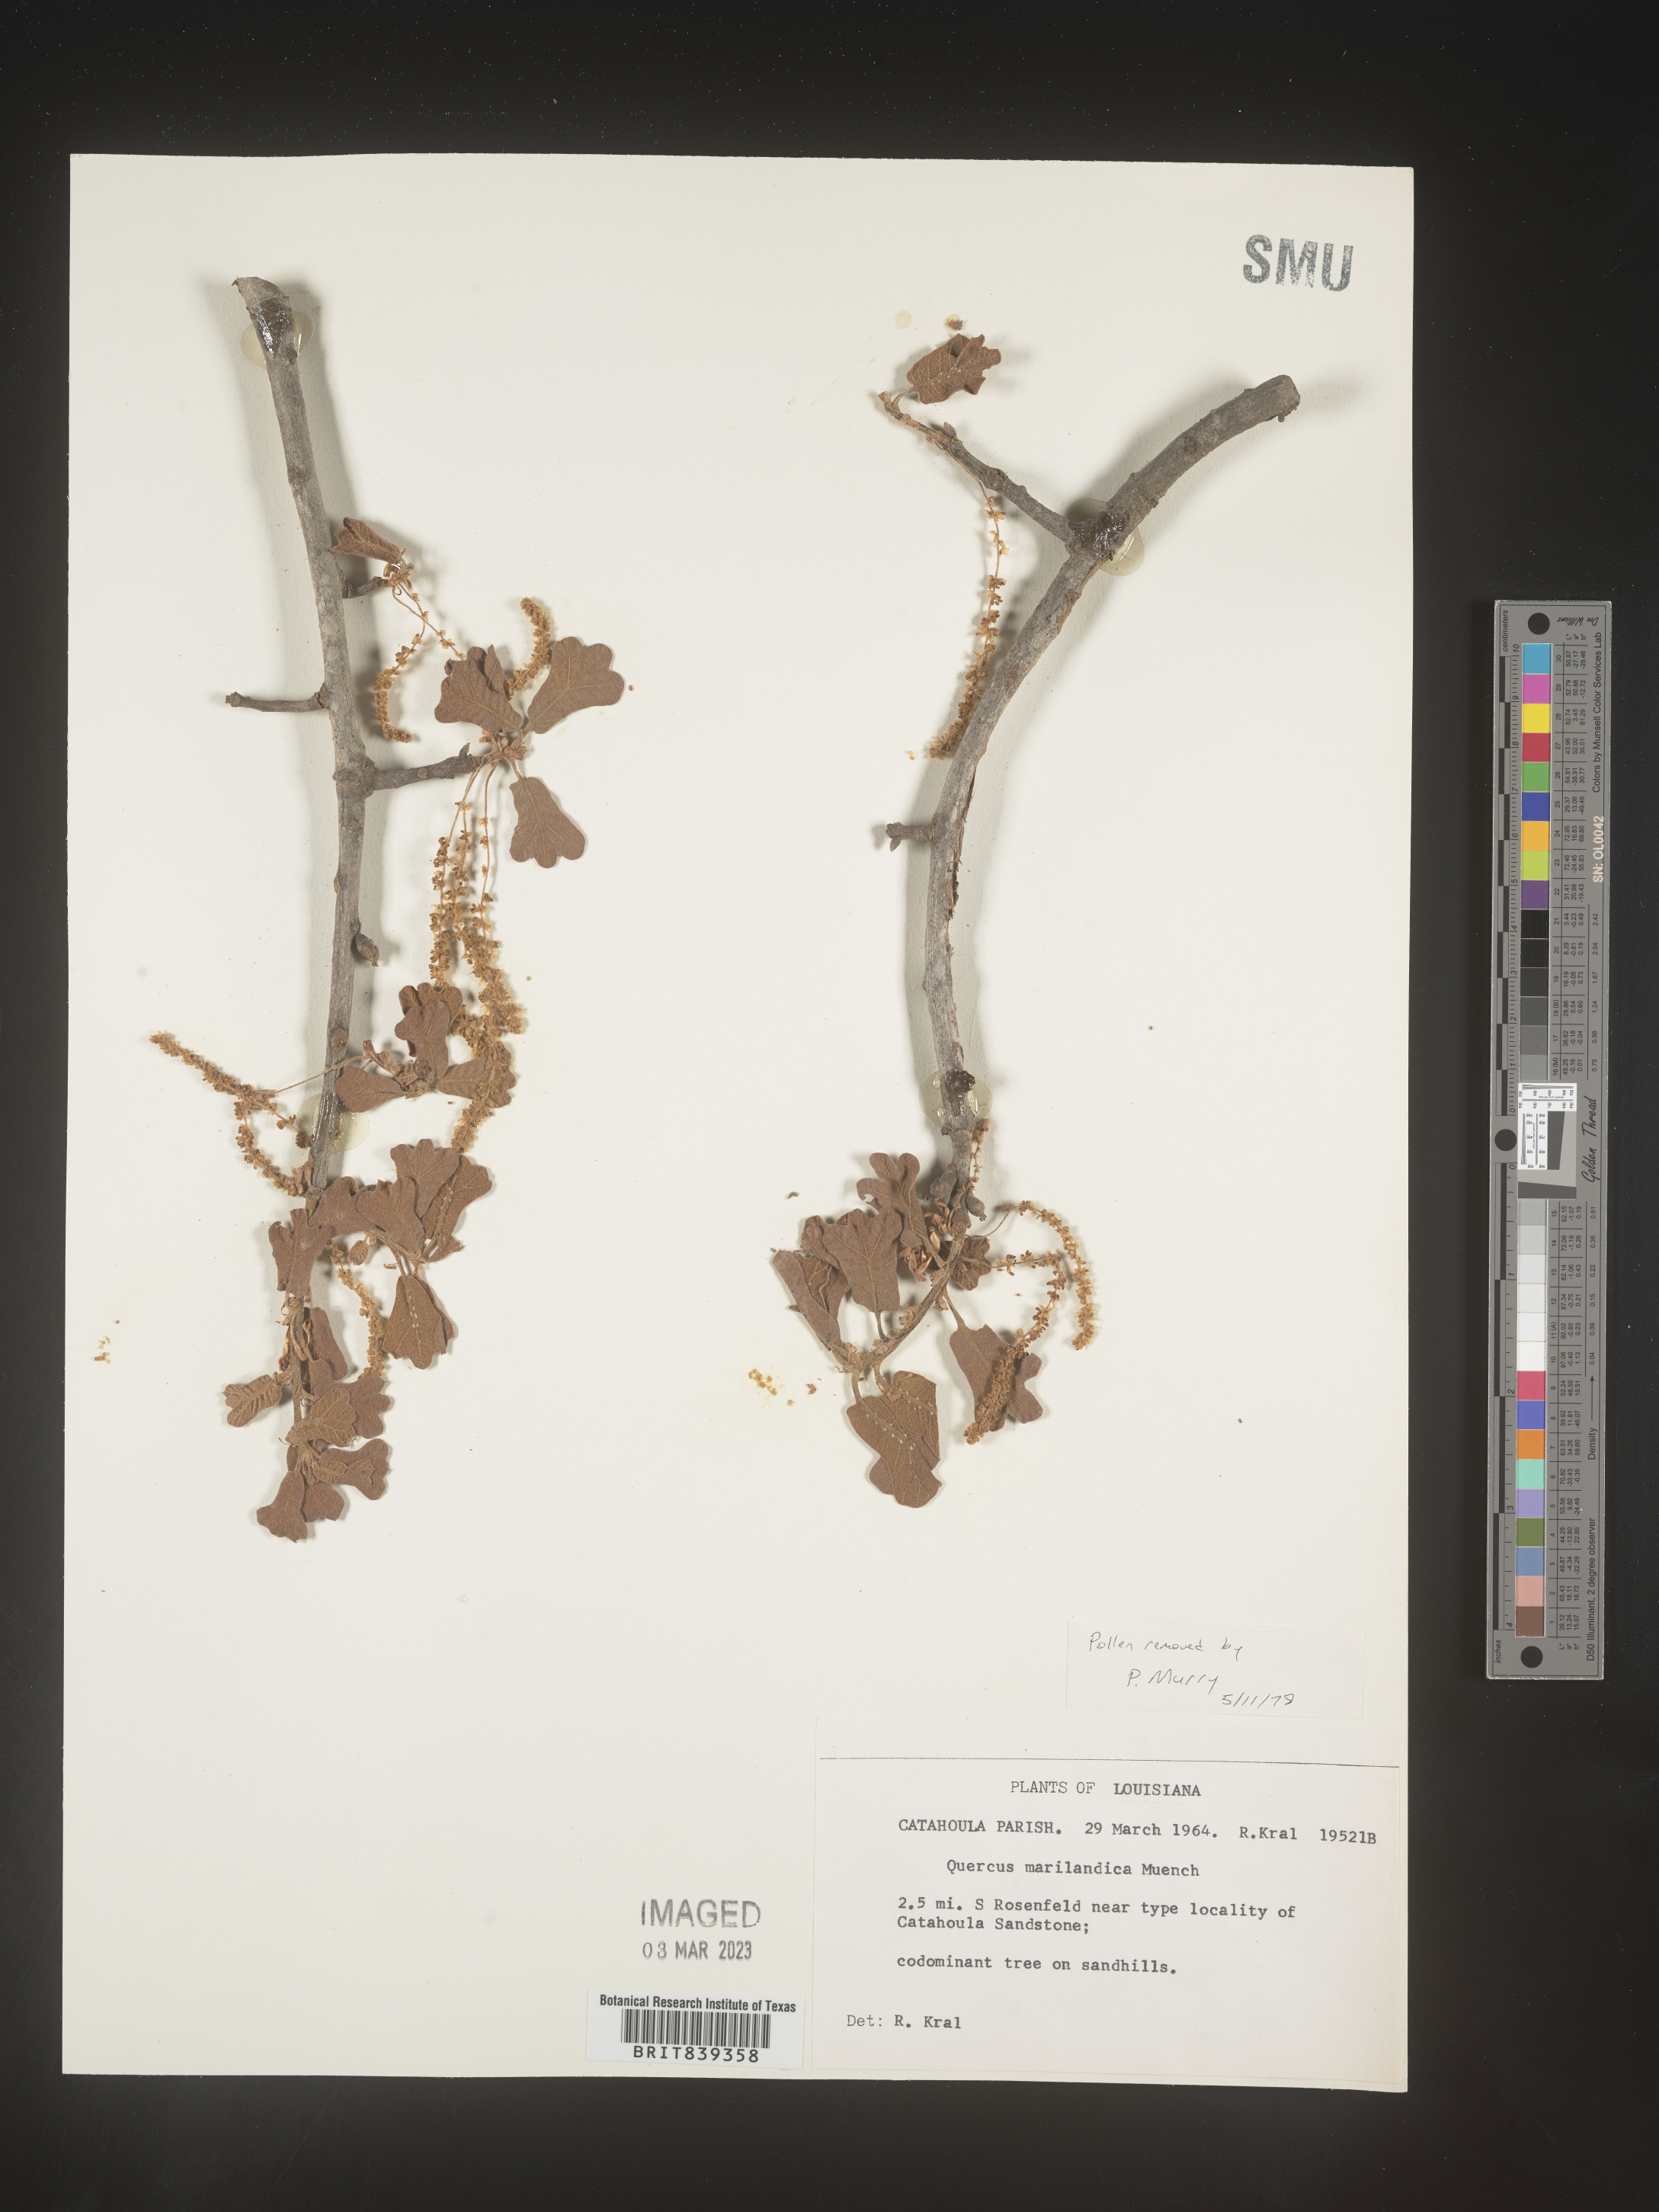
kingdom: Plantae
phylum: Tracheophyta
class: Magnoliopsida
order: Fagales
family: Fagaceae
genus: Quercus
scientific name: Quercus marilandica
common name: Blackjack oak
